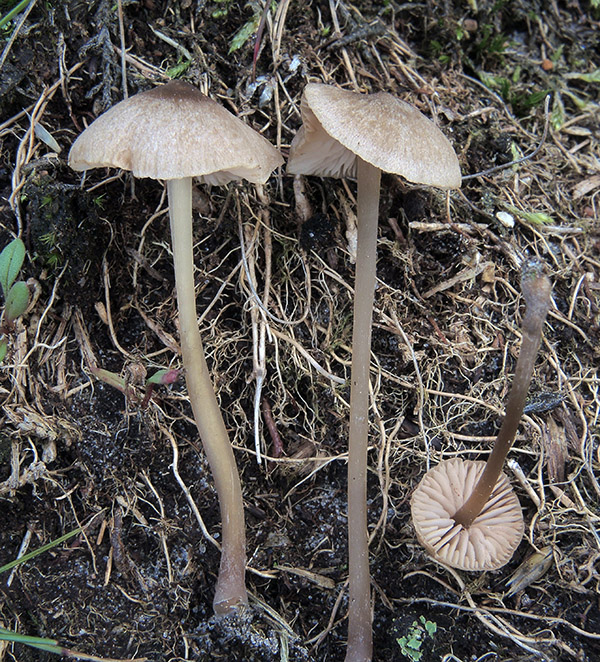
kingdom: Fungi
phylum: Basidiomycota
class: Agaricomycetes
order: Agaricales
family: Entolomataceae
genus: Entoloma
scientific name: Entoloma fernandae
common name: filtet rødblad
